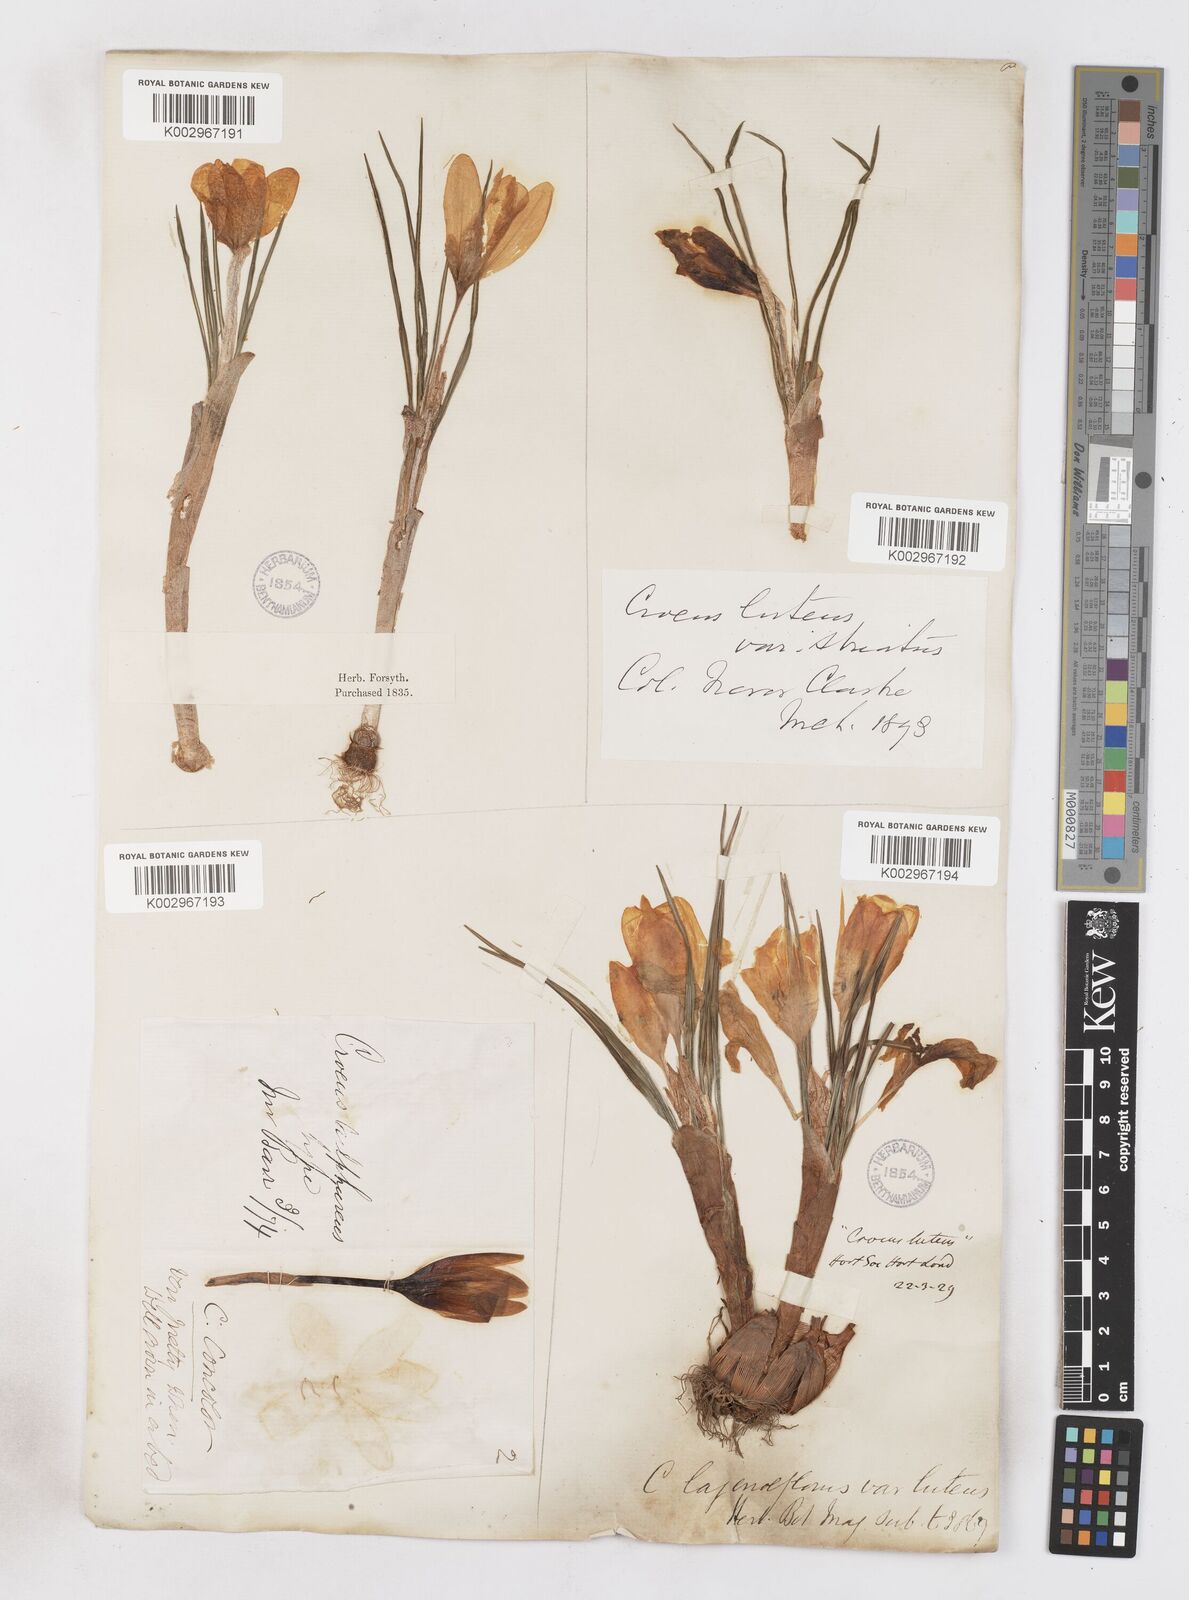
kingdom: Plantae
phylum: Tracheophyta
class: Liliopsida
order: Asparagales
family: Iridaceae
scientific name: Iridaceae
